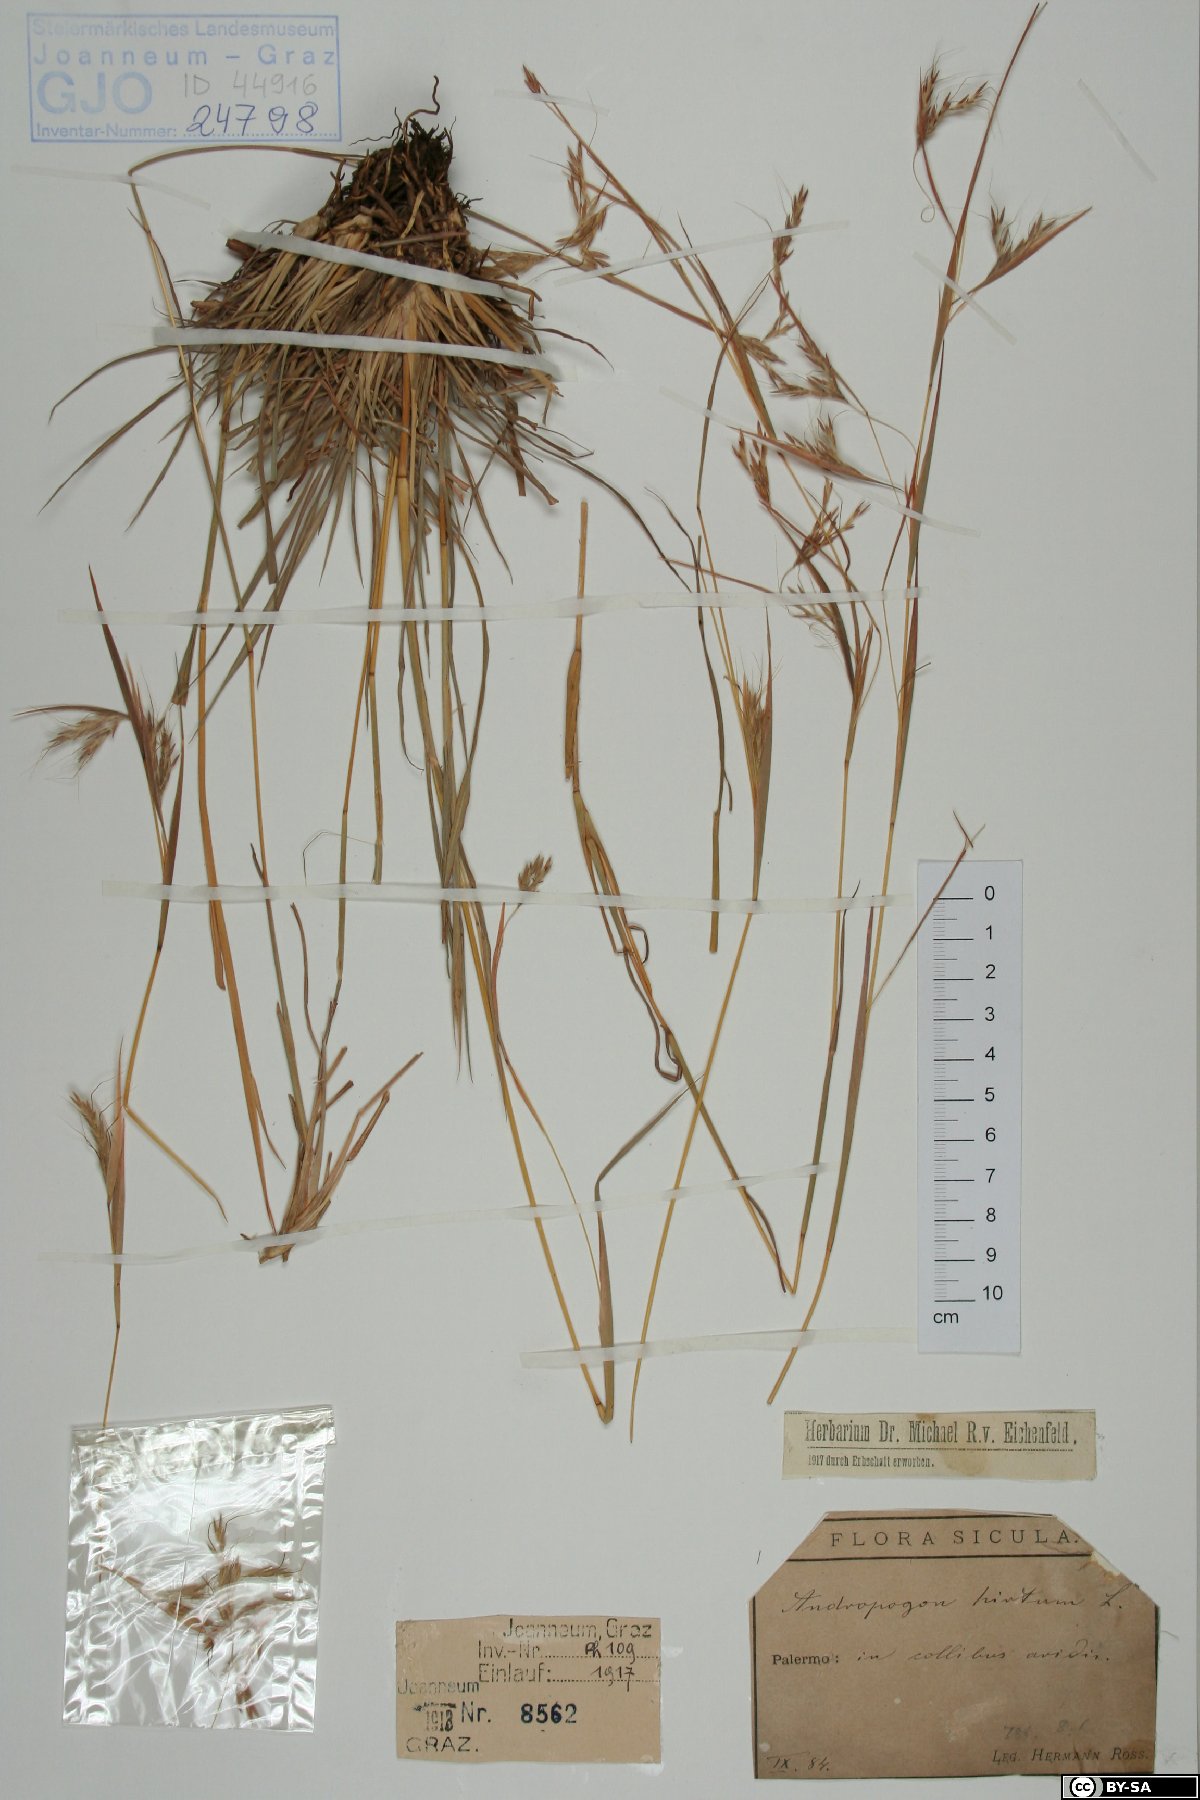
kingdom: Plantae
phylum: Tracheophyta
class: Liliopsida
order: Poales
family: Poaceae
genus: Hyparrhenia
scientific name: Hyparrhenia hirta
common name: Thatching grass
